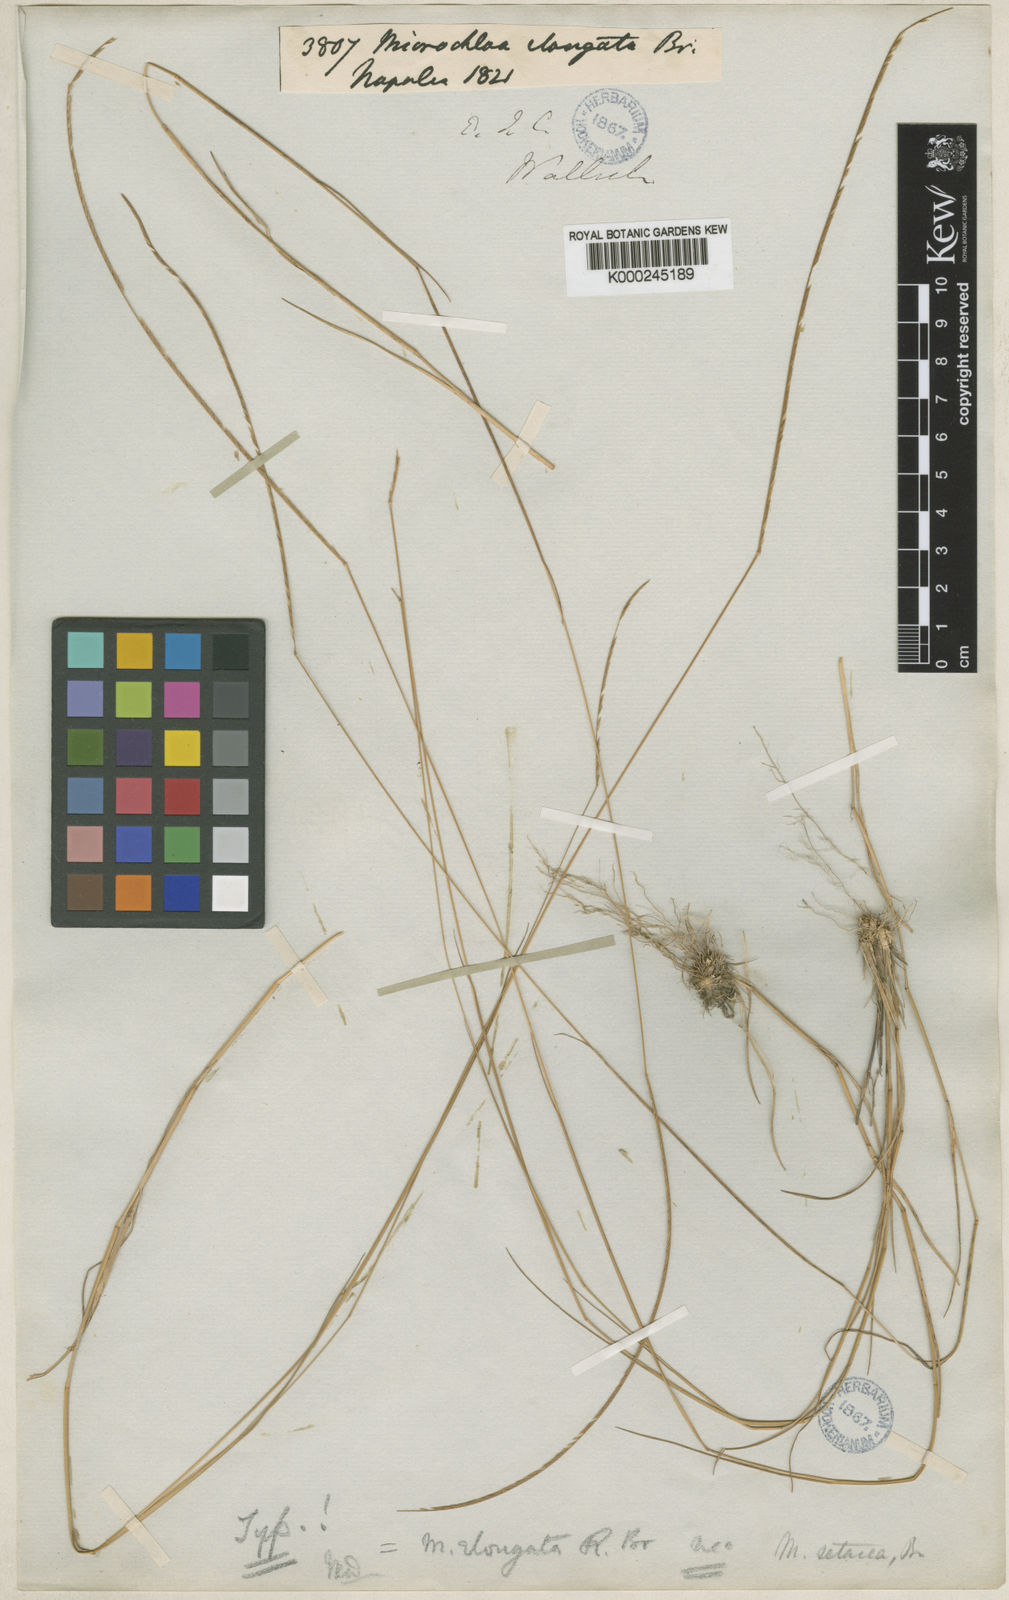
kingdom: Plantae
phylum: Tracheophyta
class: Liliopsida
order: Poales
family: Poaceae
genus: Microchloa
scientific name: Microchloa kunthii
